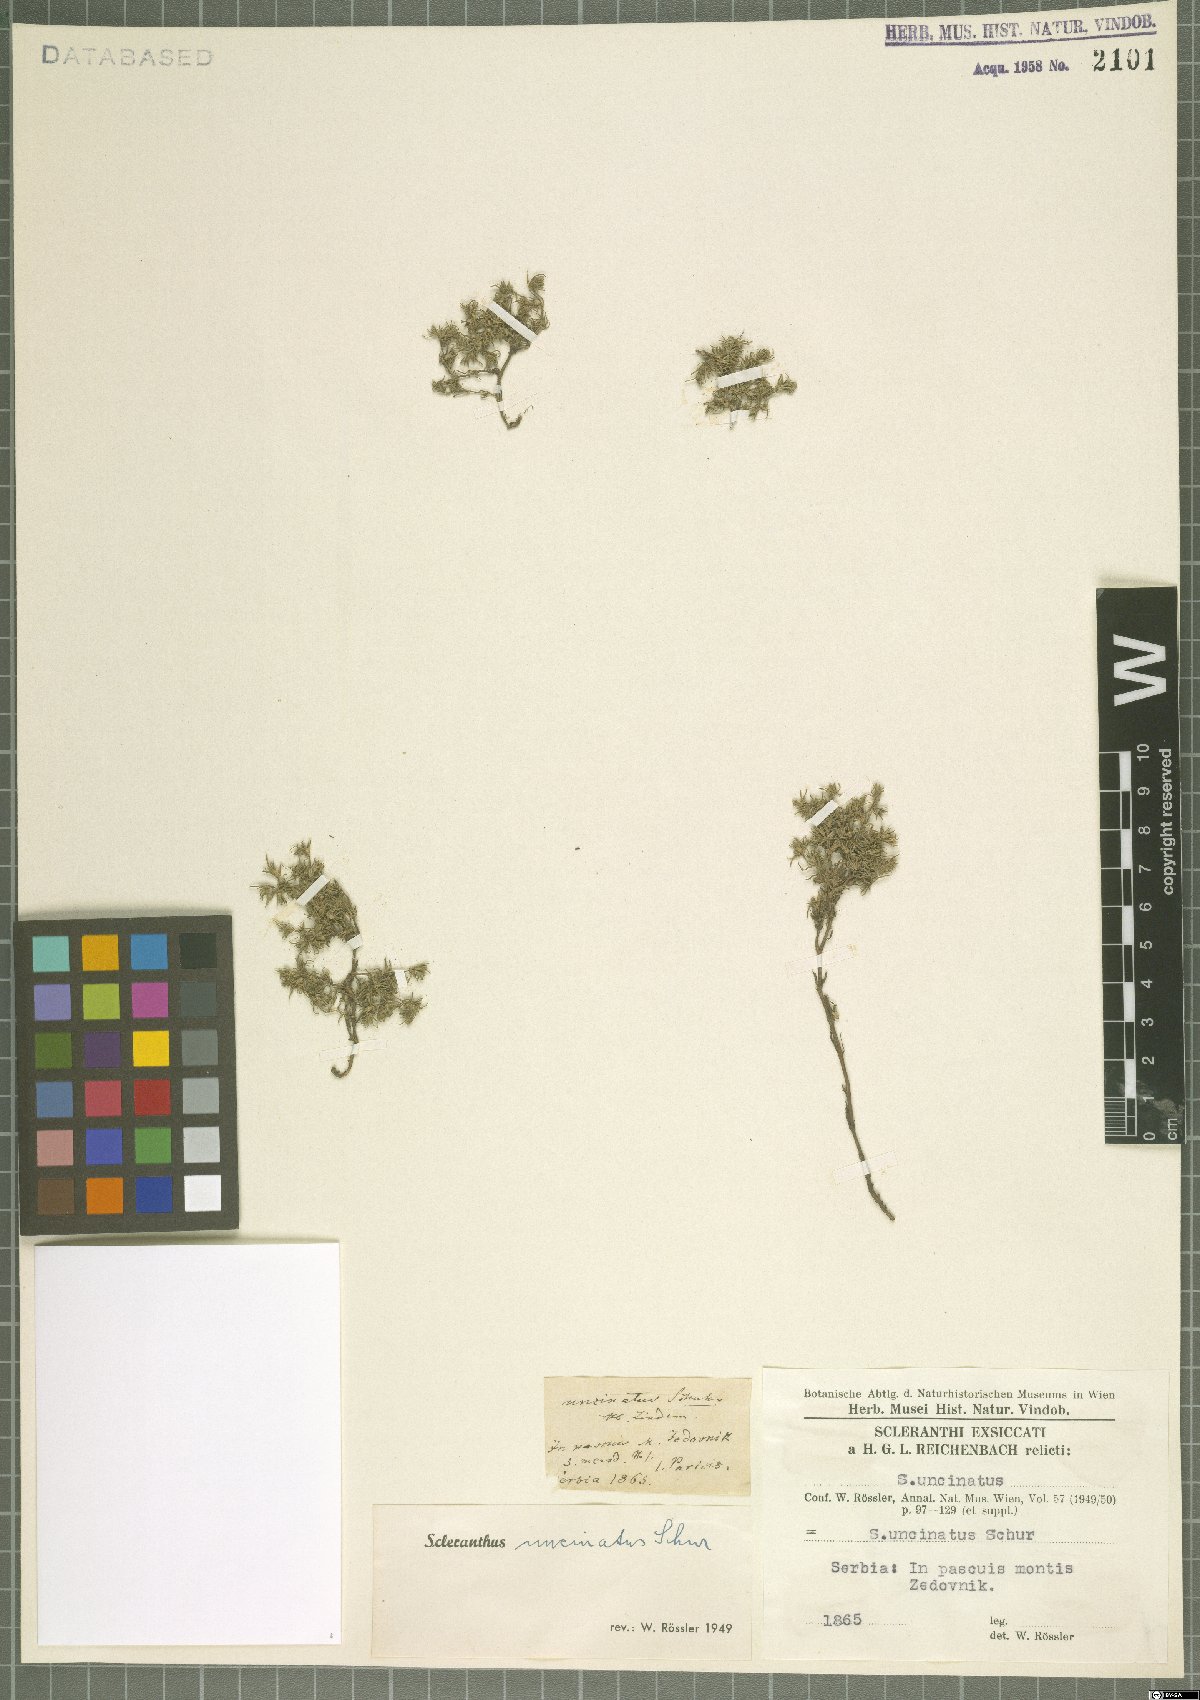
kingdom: Plantae
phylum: Tracheophyta
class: Magnoliopsida
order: Caryophyllales
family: Caryophyllaceae
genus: Scleranthus
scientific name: Scleranthus uncinatus
